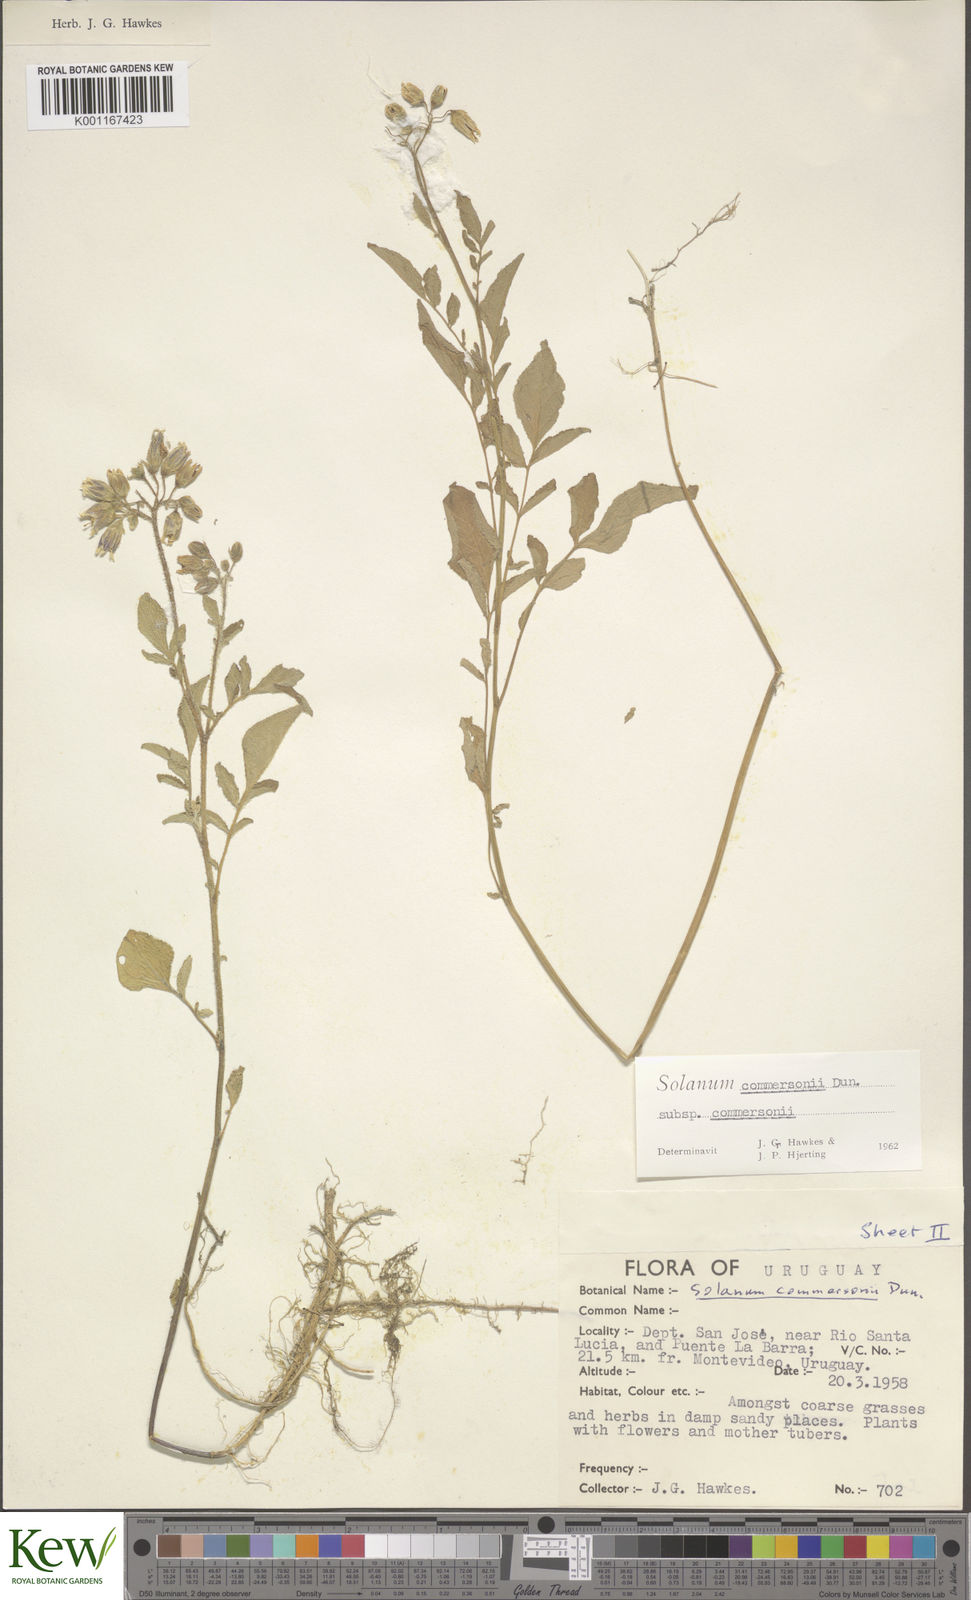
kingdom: Plantae
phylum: Tracheophyta
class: Magnoliopsida
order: Solanales
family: Solanaceae
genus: Solanum
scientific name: Solanum commersonii
